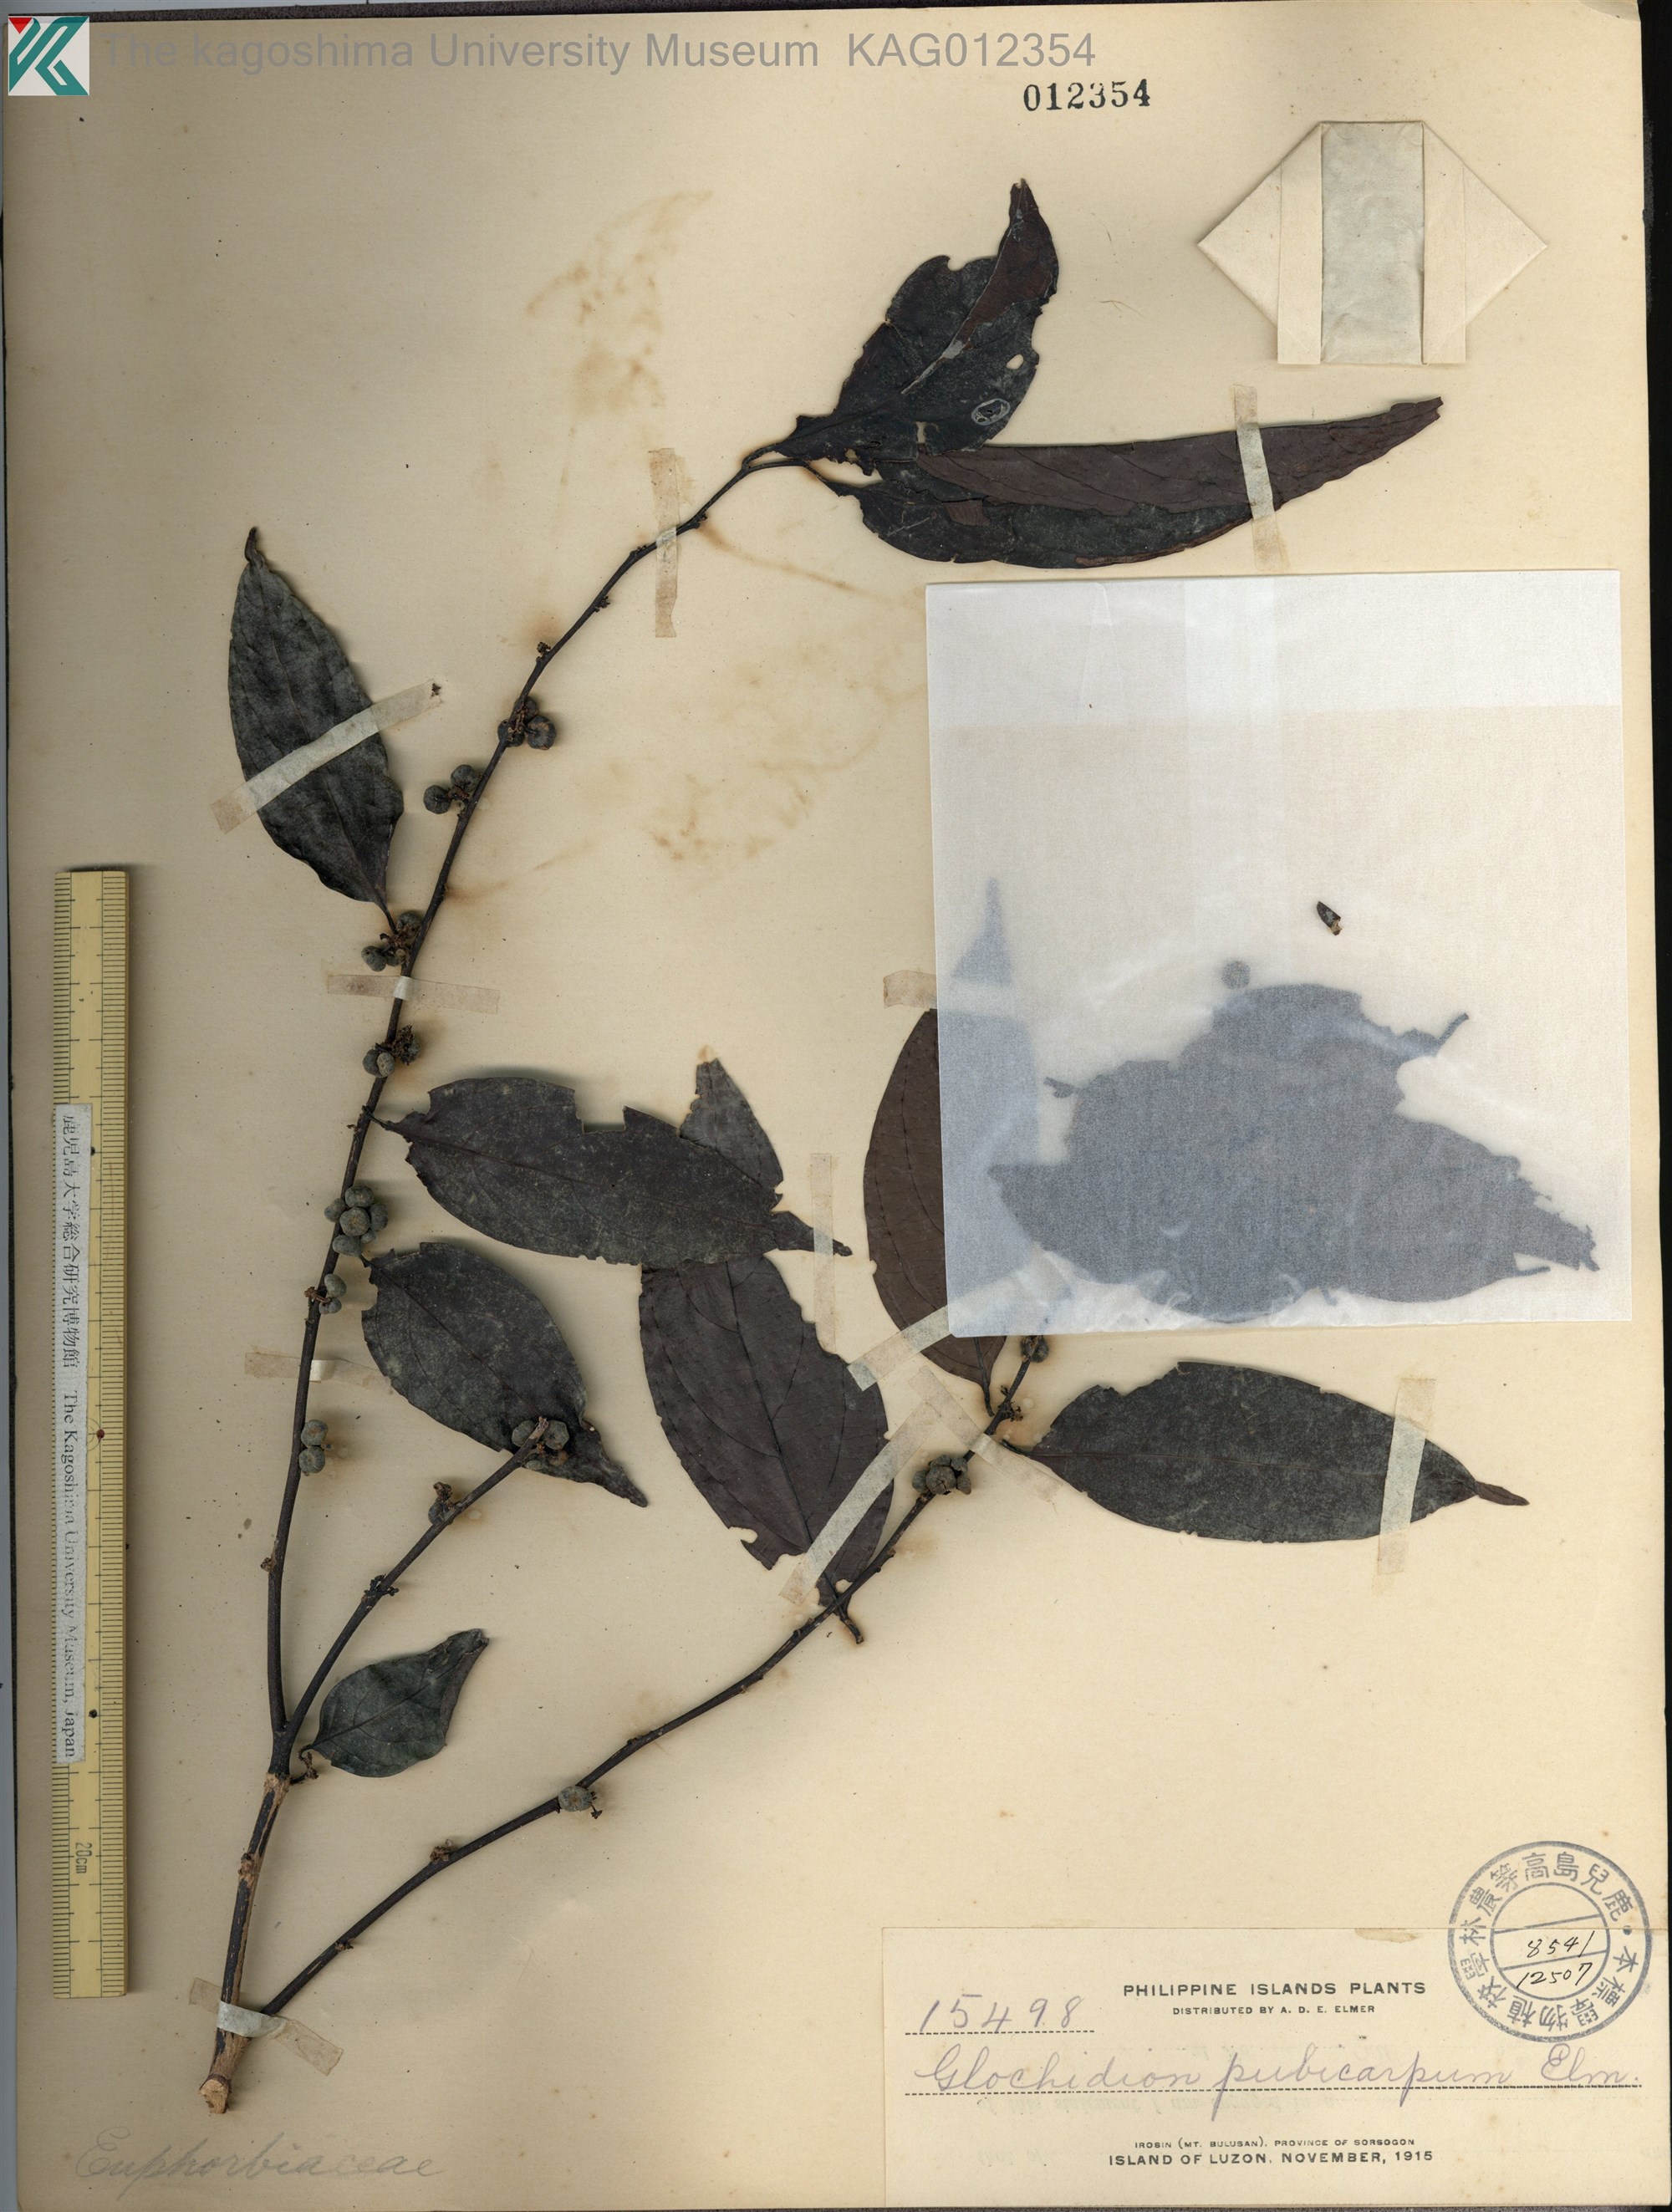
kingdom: Plantae
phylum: Tracheophyta
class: Magnoliopsida
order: Malpighiales
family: Phyllanthaceae
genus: Glochidion
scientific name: Glochidion pubicapsa
